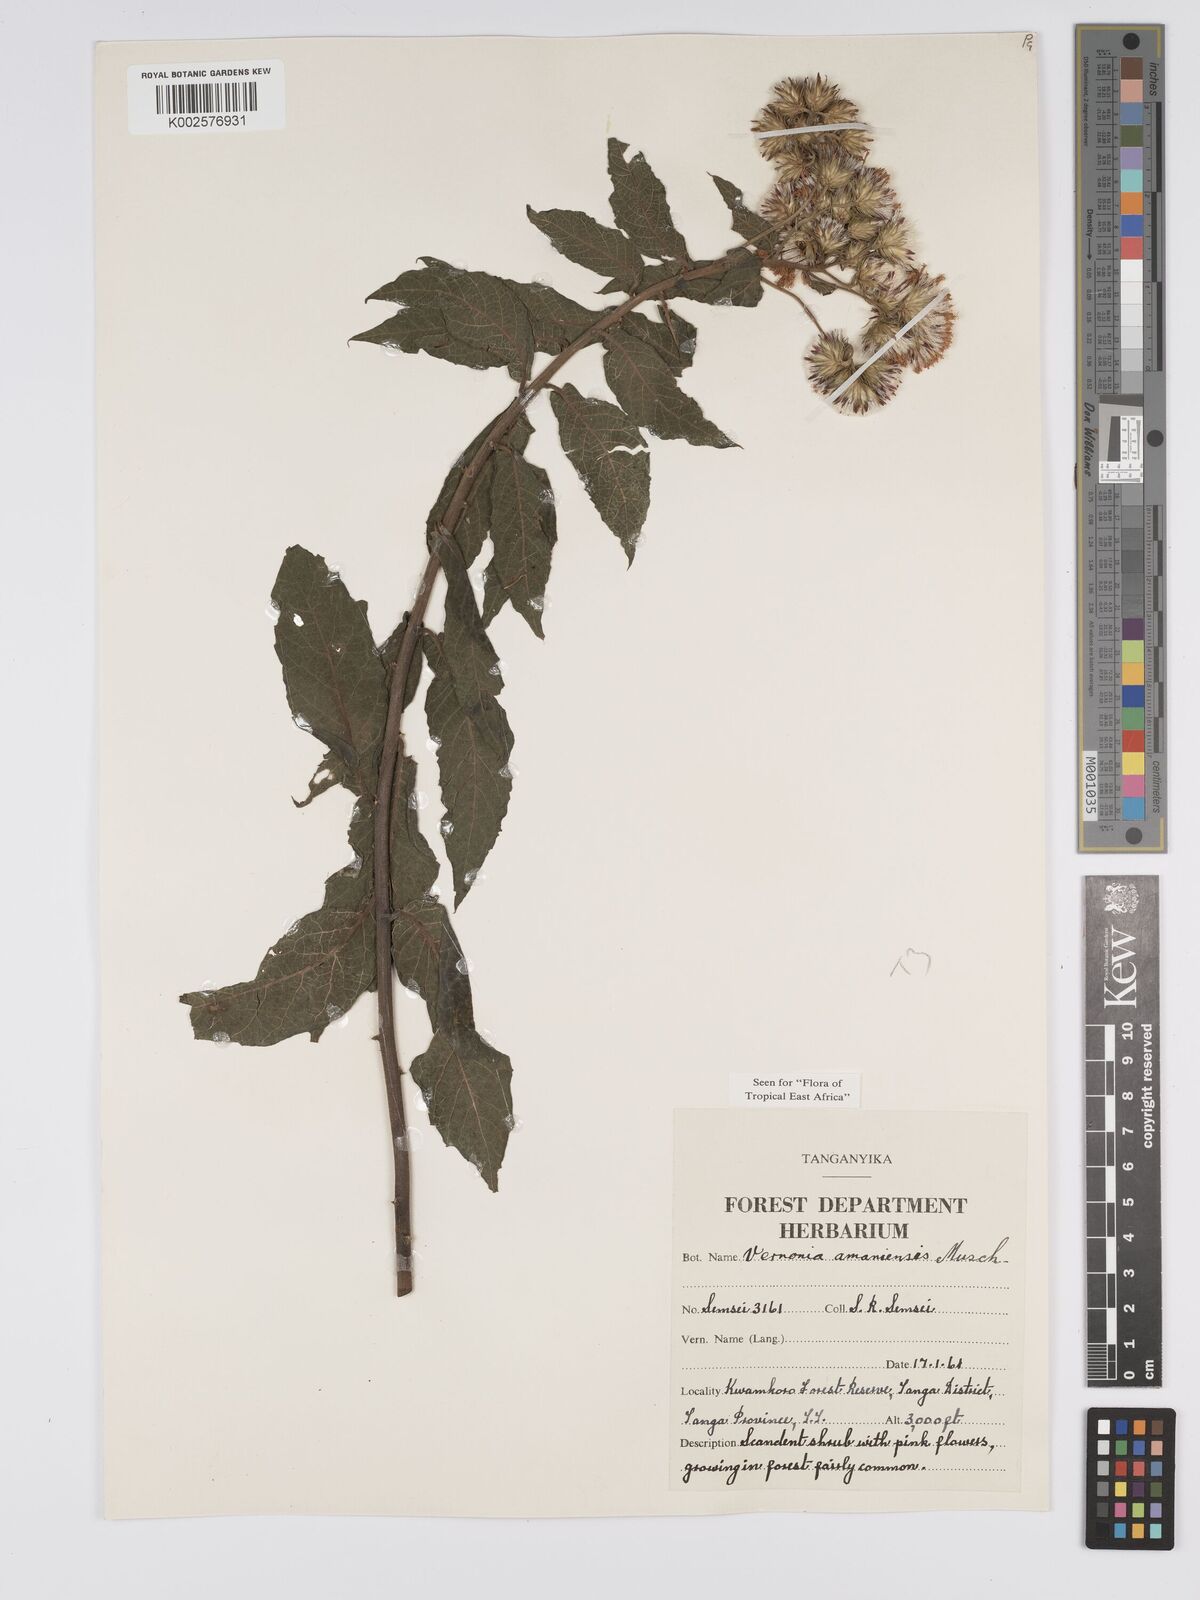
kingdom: Plantae
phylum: Tracheophyta
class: Magnoliopsida
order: Asterales
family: Asteraceae
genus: Jeffreycia
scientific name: Jeffreycia amaniensis
